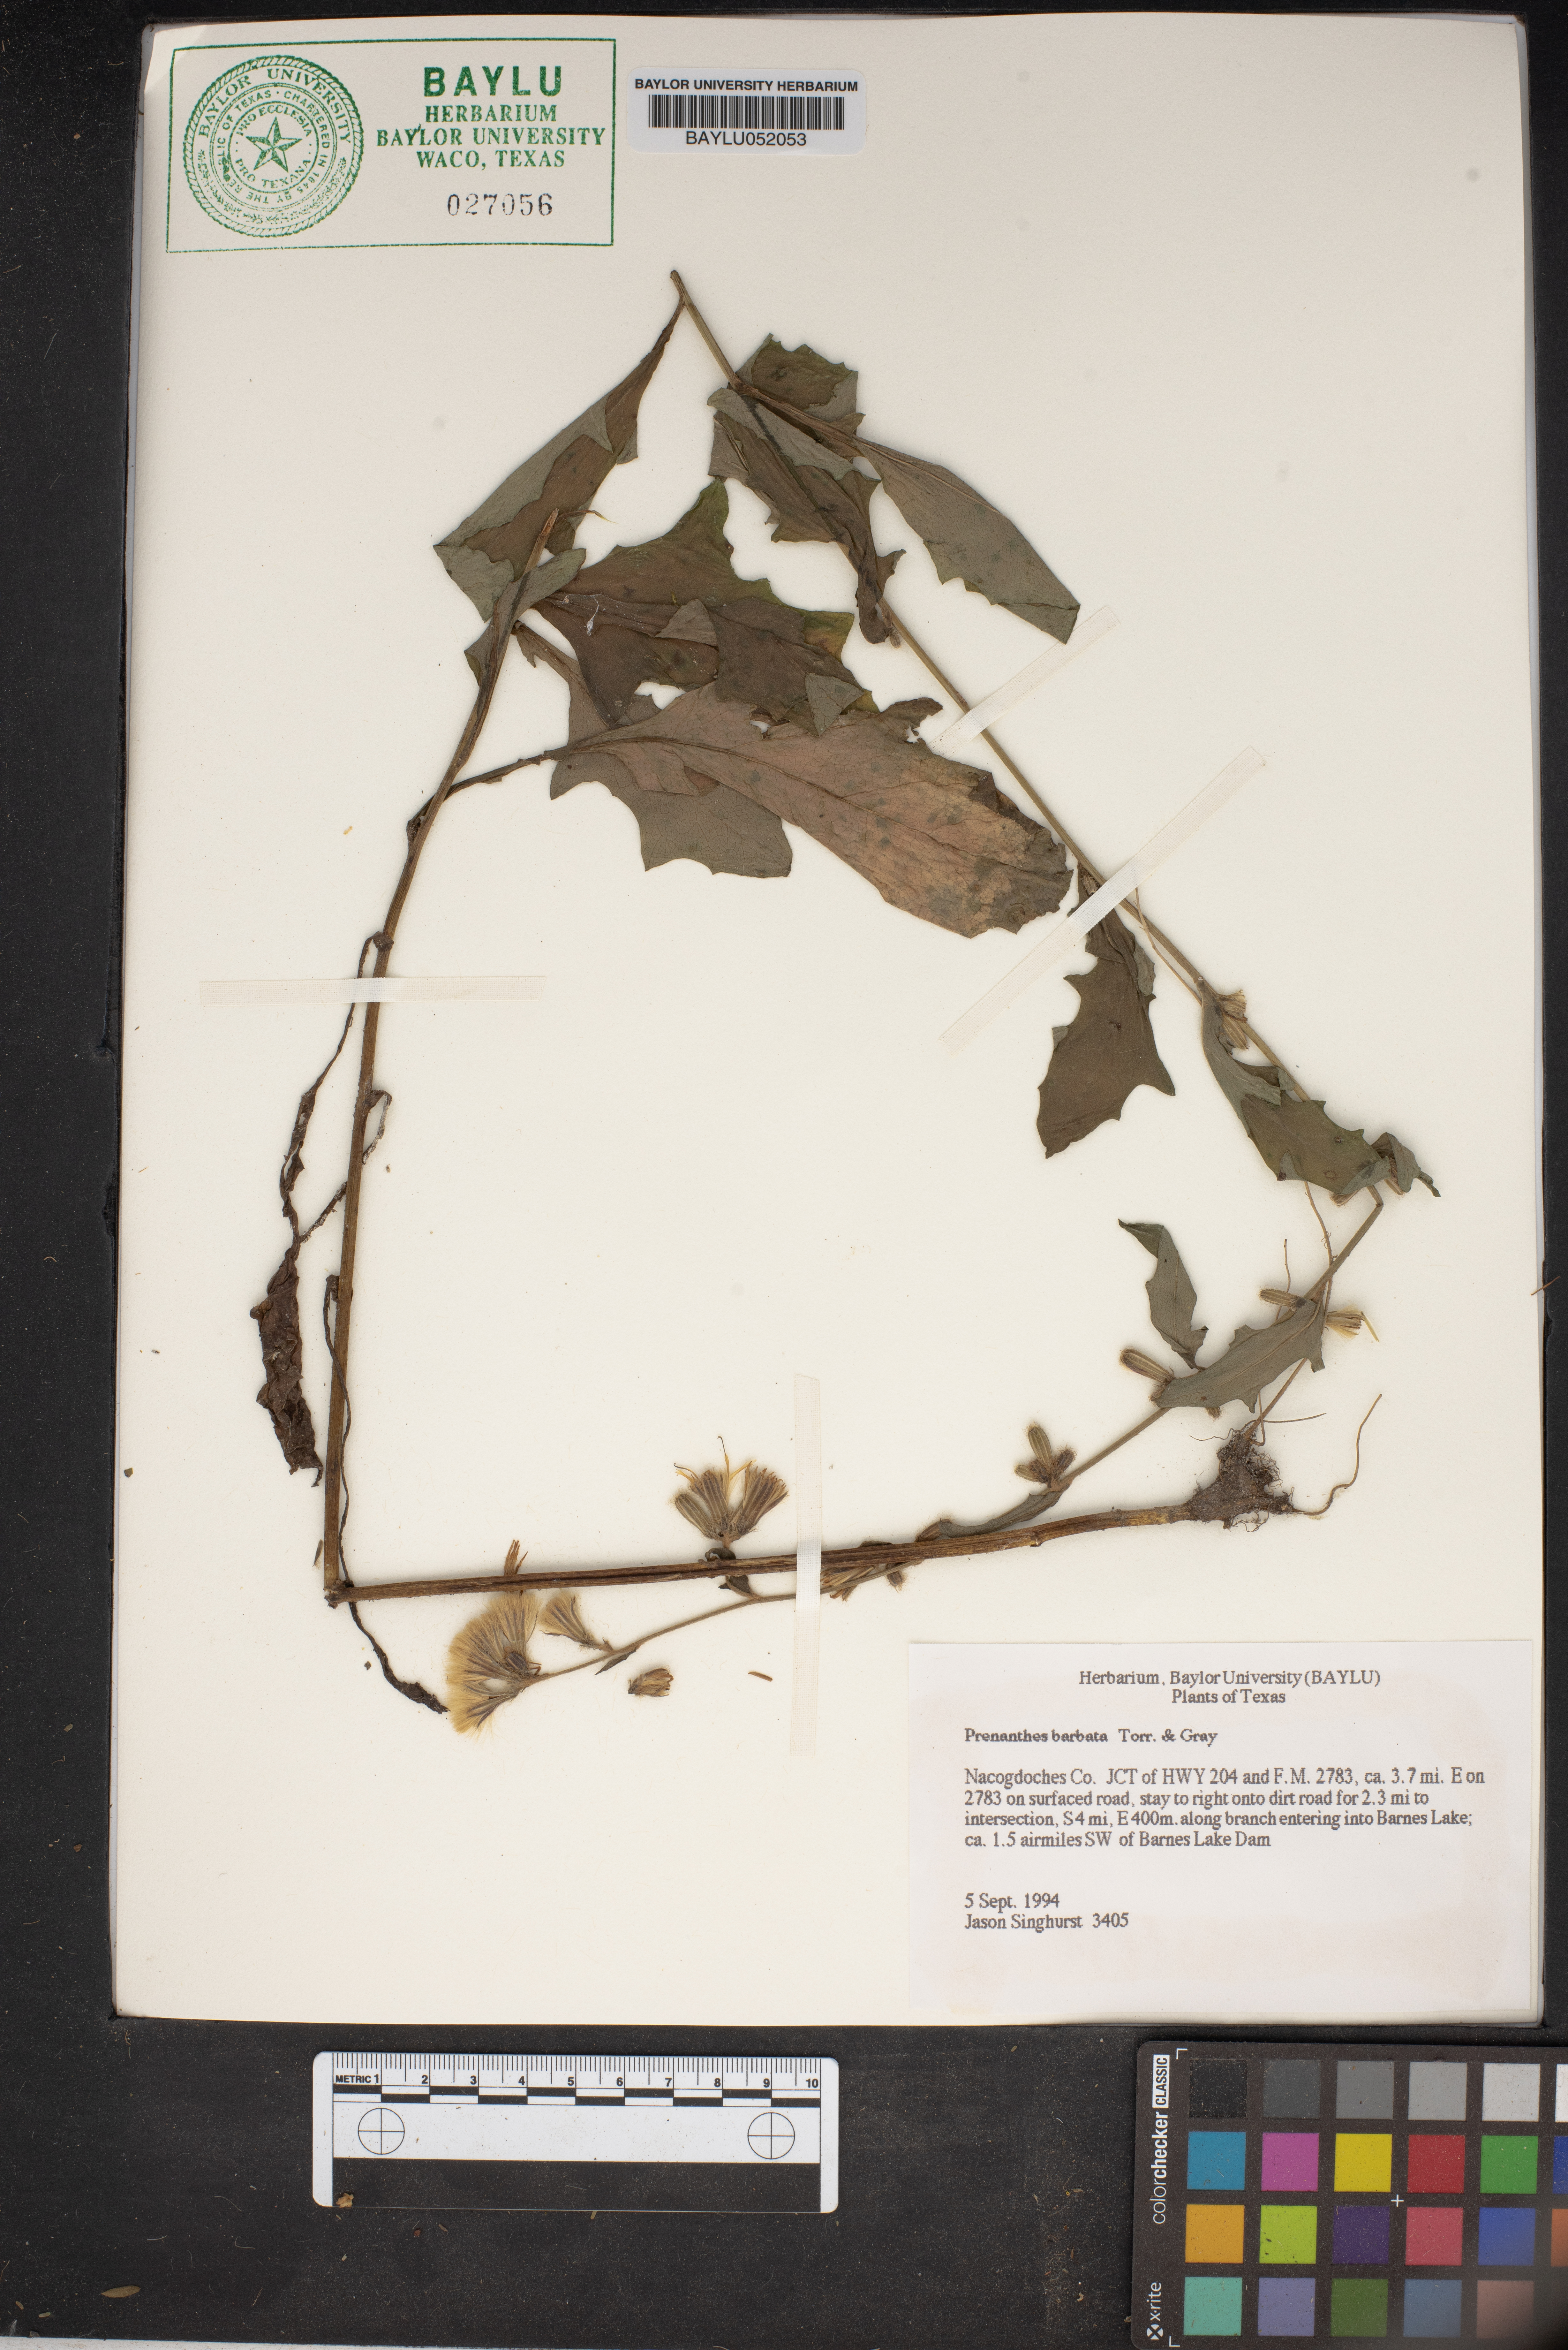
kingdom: Plantae
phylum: Tracheophyta
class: Magnoliopsida
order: Asterales
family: Asteraceae
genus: Nabalus
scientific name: Nabalus barbata
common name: Barbed rattlesnakeroot
